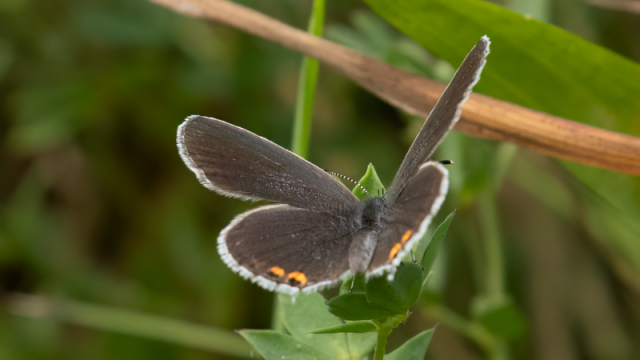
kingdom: Animalia
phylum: Arthropoda
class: Insecta
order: Lepidoptera
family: Lycaenidae
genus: Elkalyce
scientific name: Elkalyce comyntas
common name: Eastern Tailed-Blue
